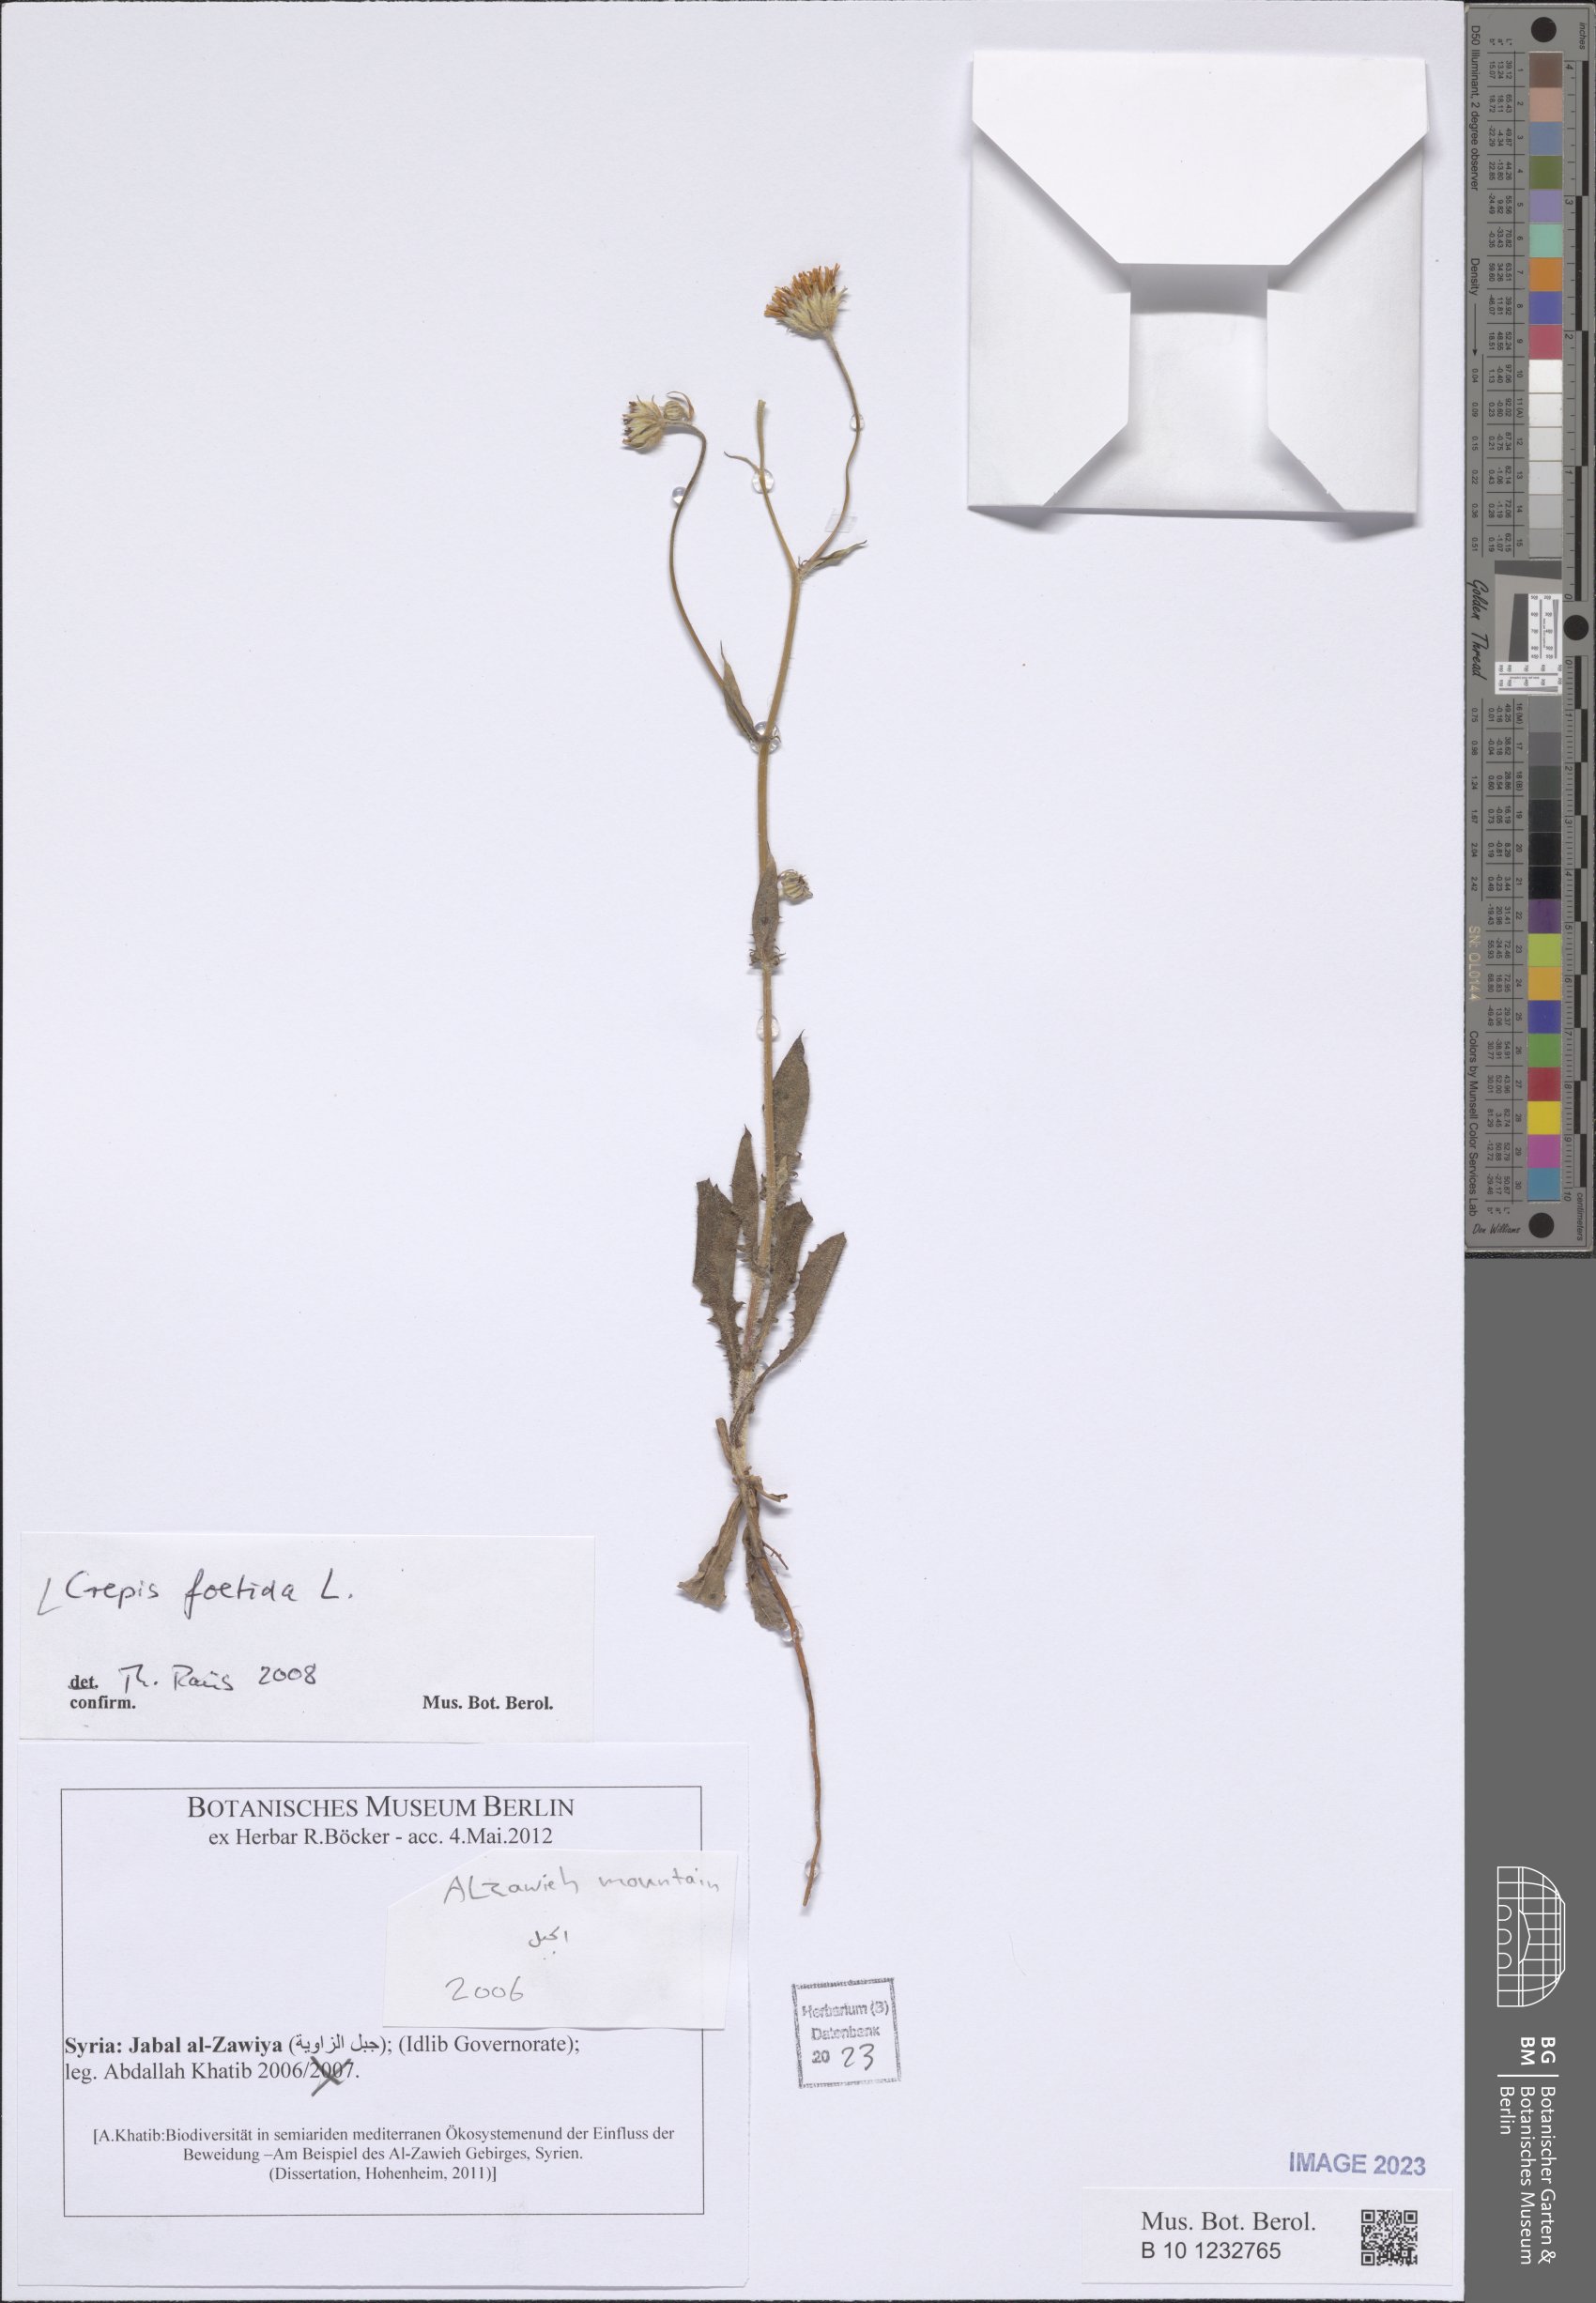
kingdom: Plantae
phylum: Tracheophyta
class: Magnoliopsida
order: Asterales
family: Asteraceae
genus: Crepis
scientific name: Crepis foetida
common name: Stinking hawk's-beard
